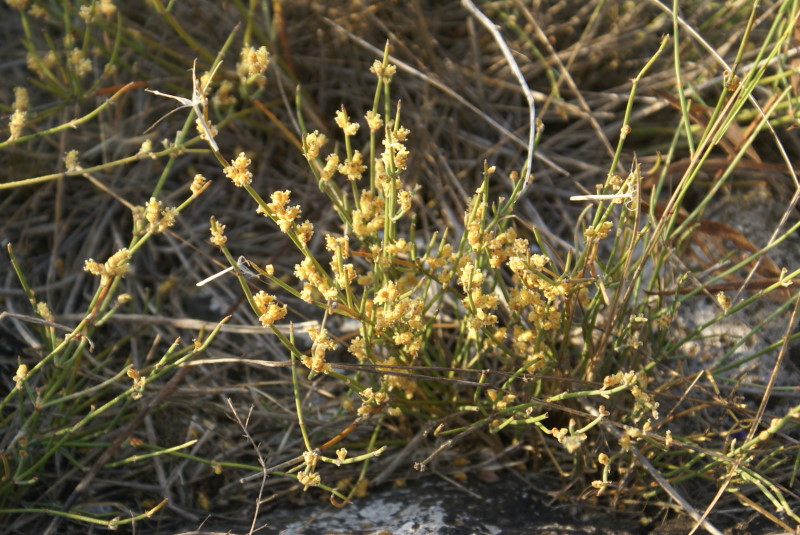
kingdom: Plantae
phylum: Tracheophyta
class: Gnetopsida
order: Ephedrales
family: Ephedraceae
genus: Ephedra
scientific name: Ephedra distachya
